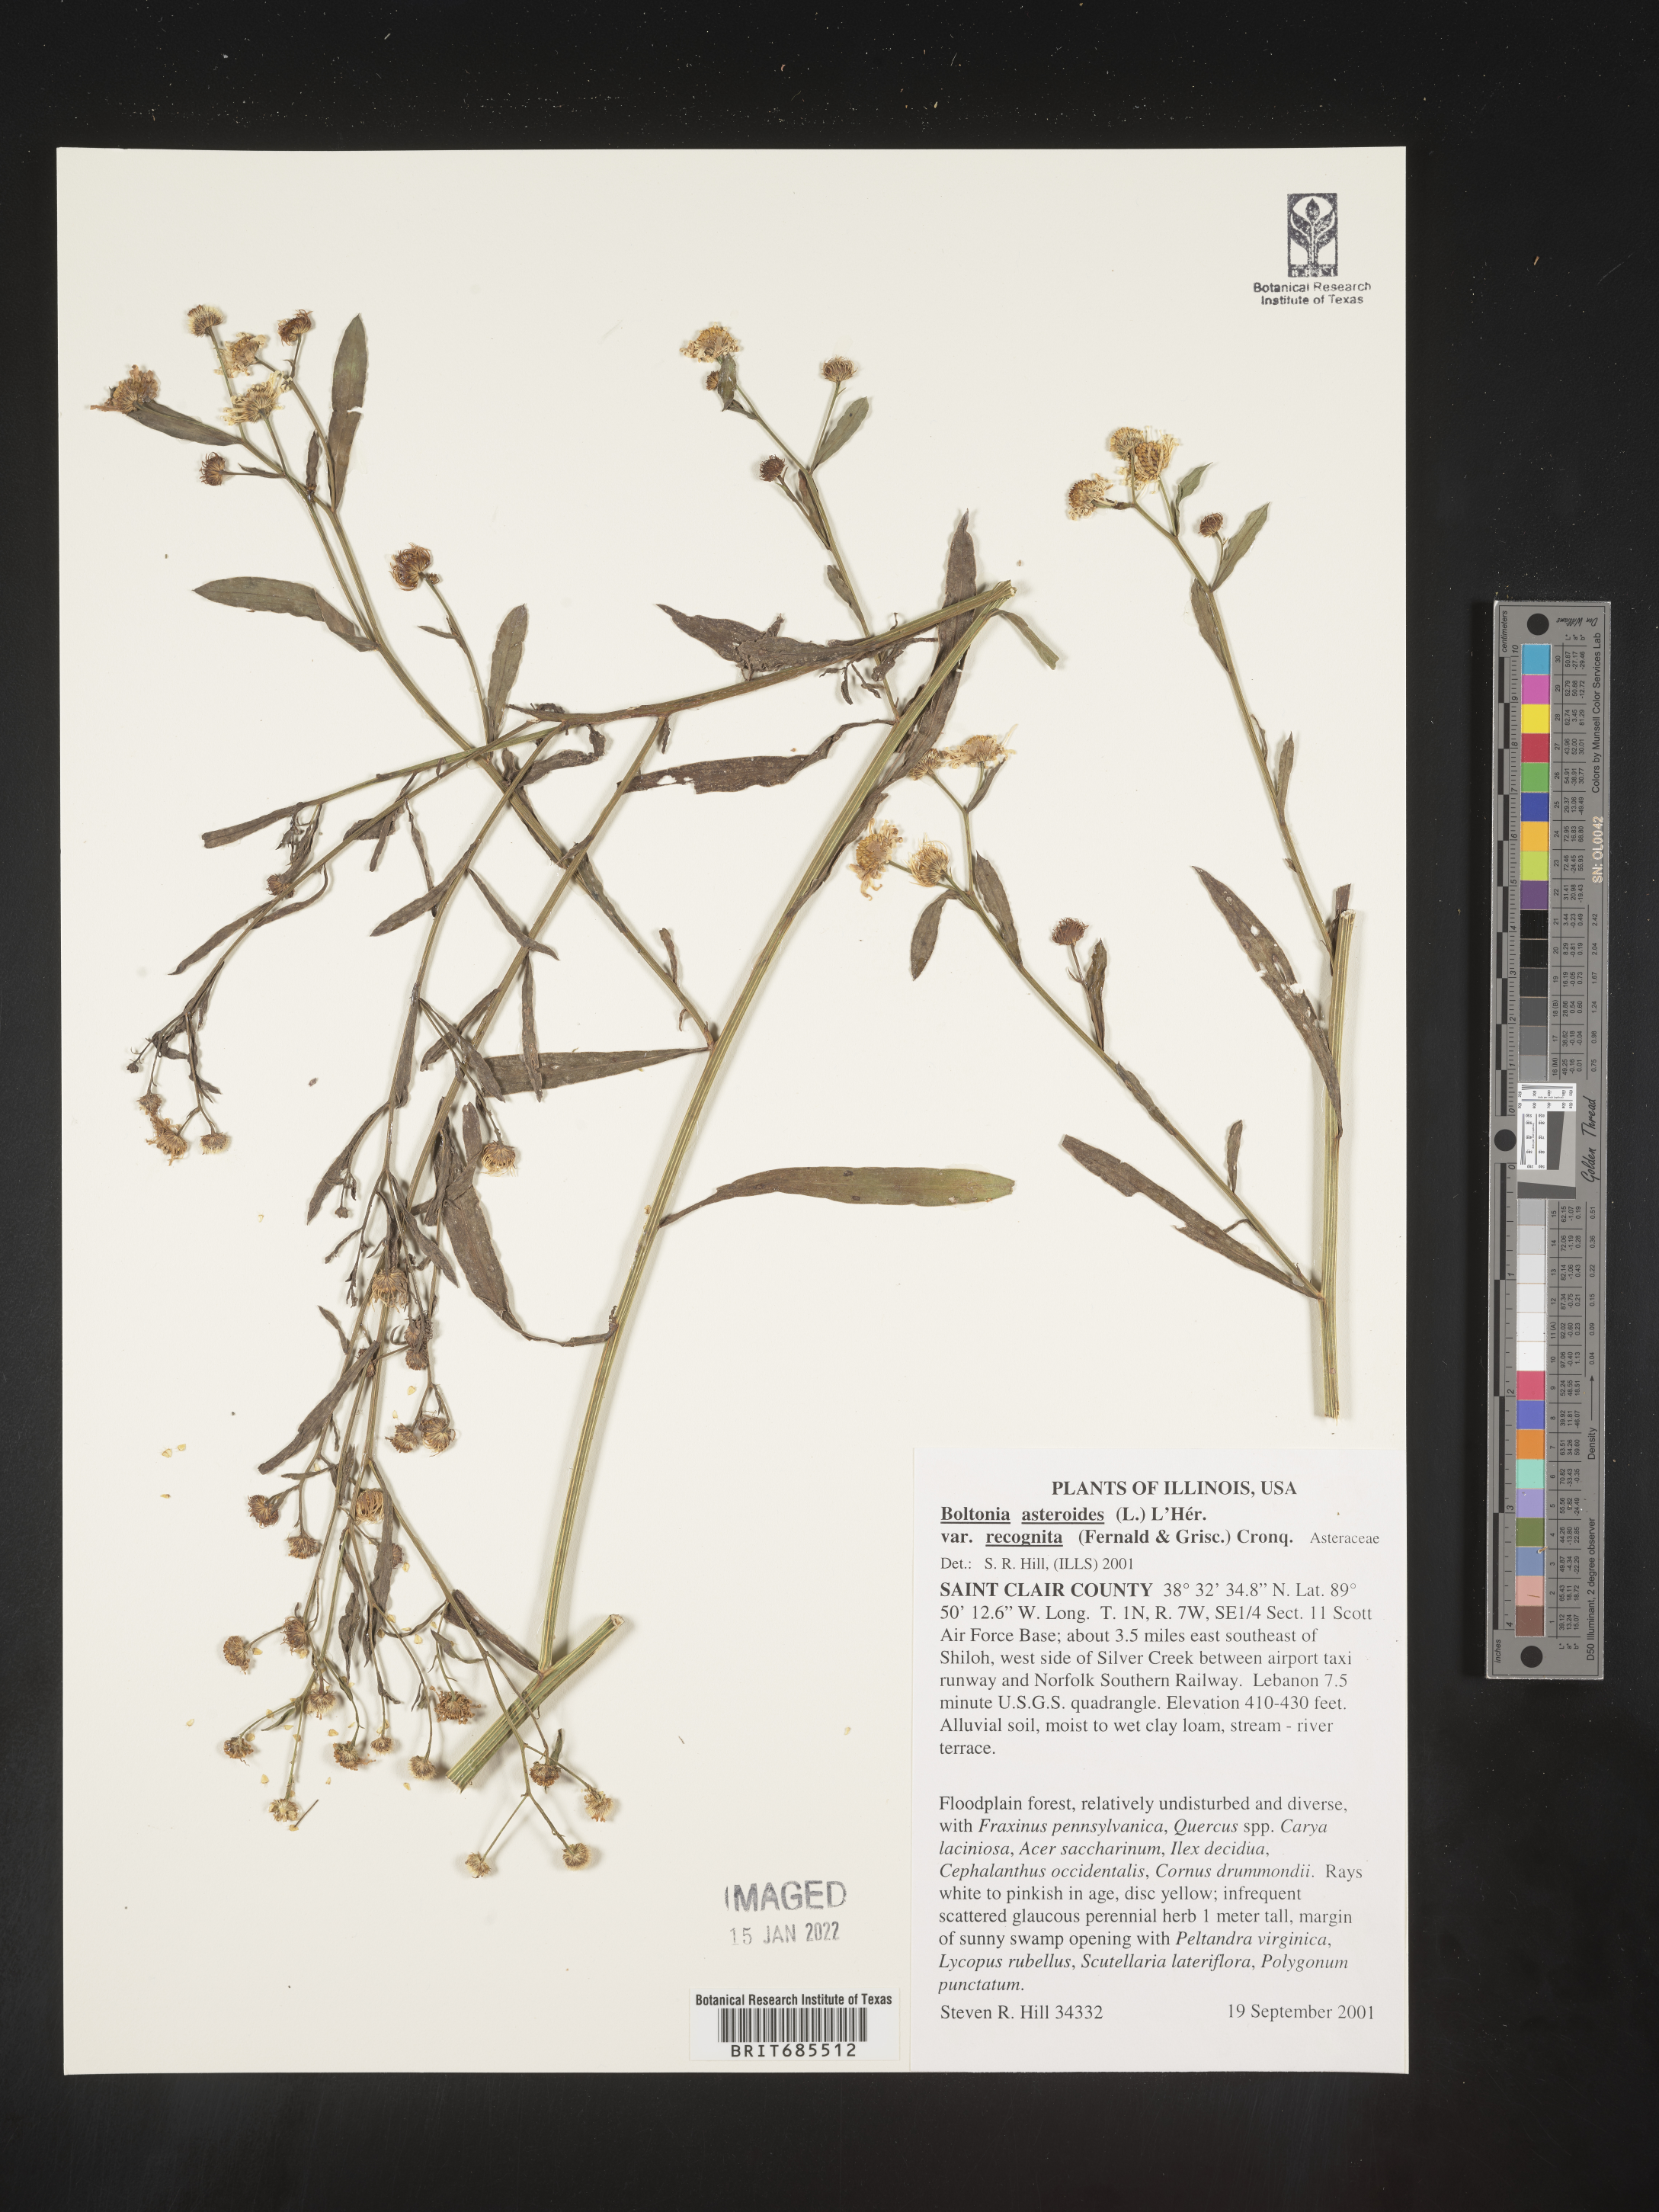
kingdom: Plantae
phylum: Tracheophyta
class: Magnoliopsida
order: Asterales
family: Asteraceae
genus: Boltonia
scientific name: Boltonia asteroides
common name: False chamomile
